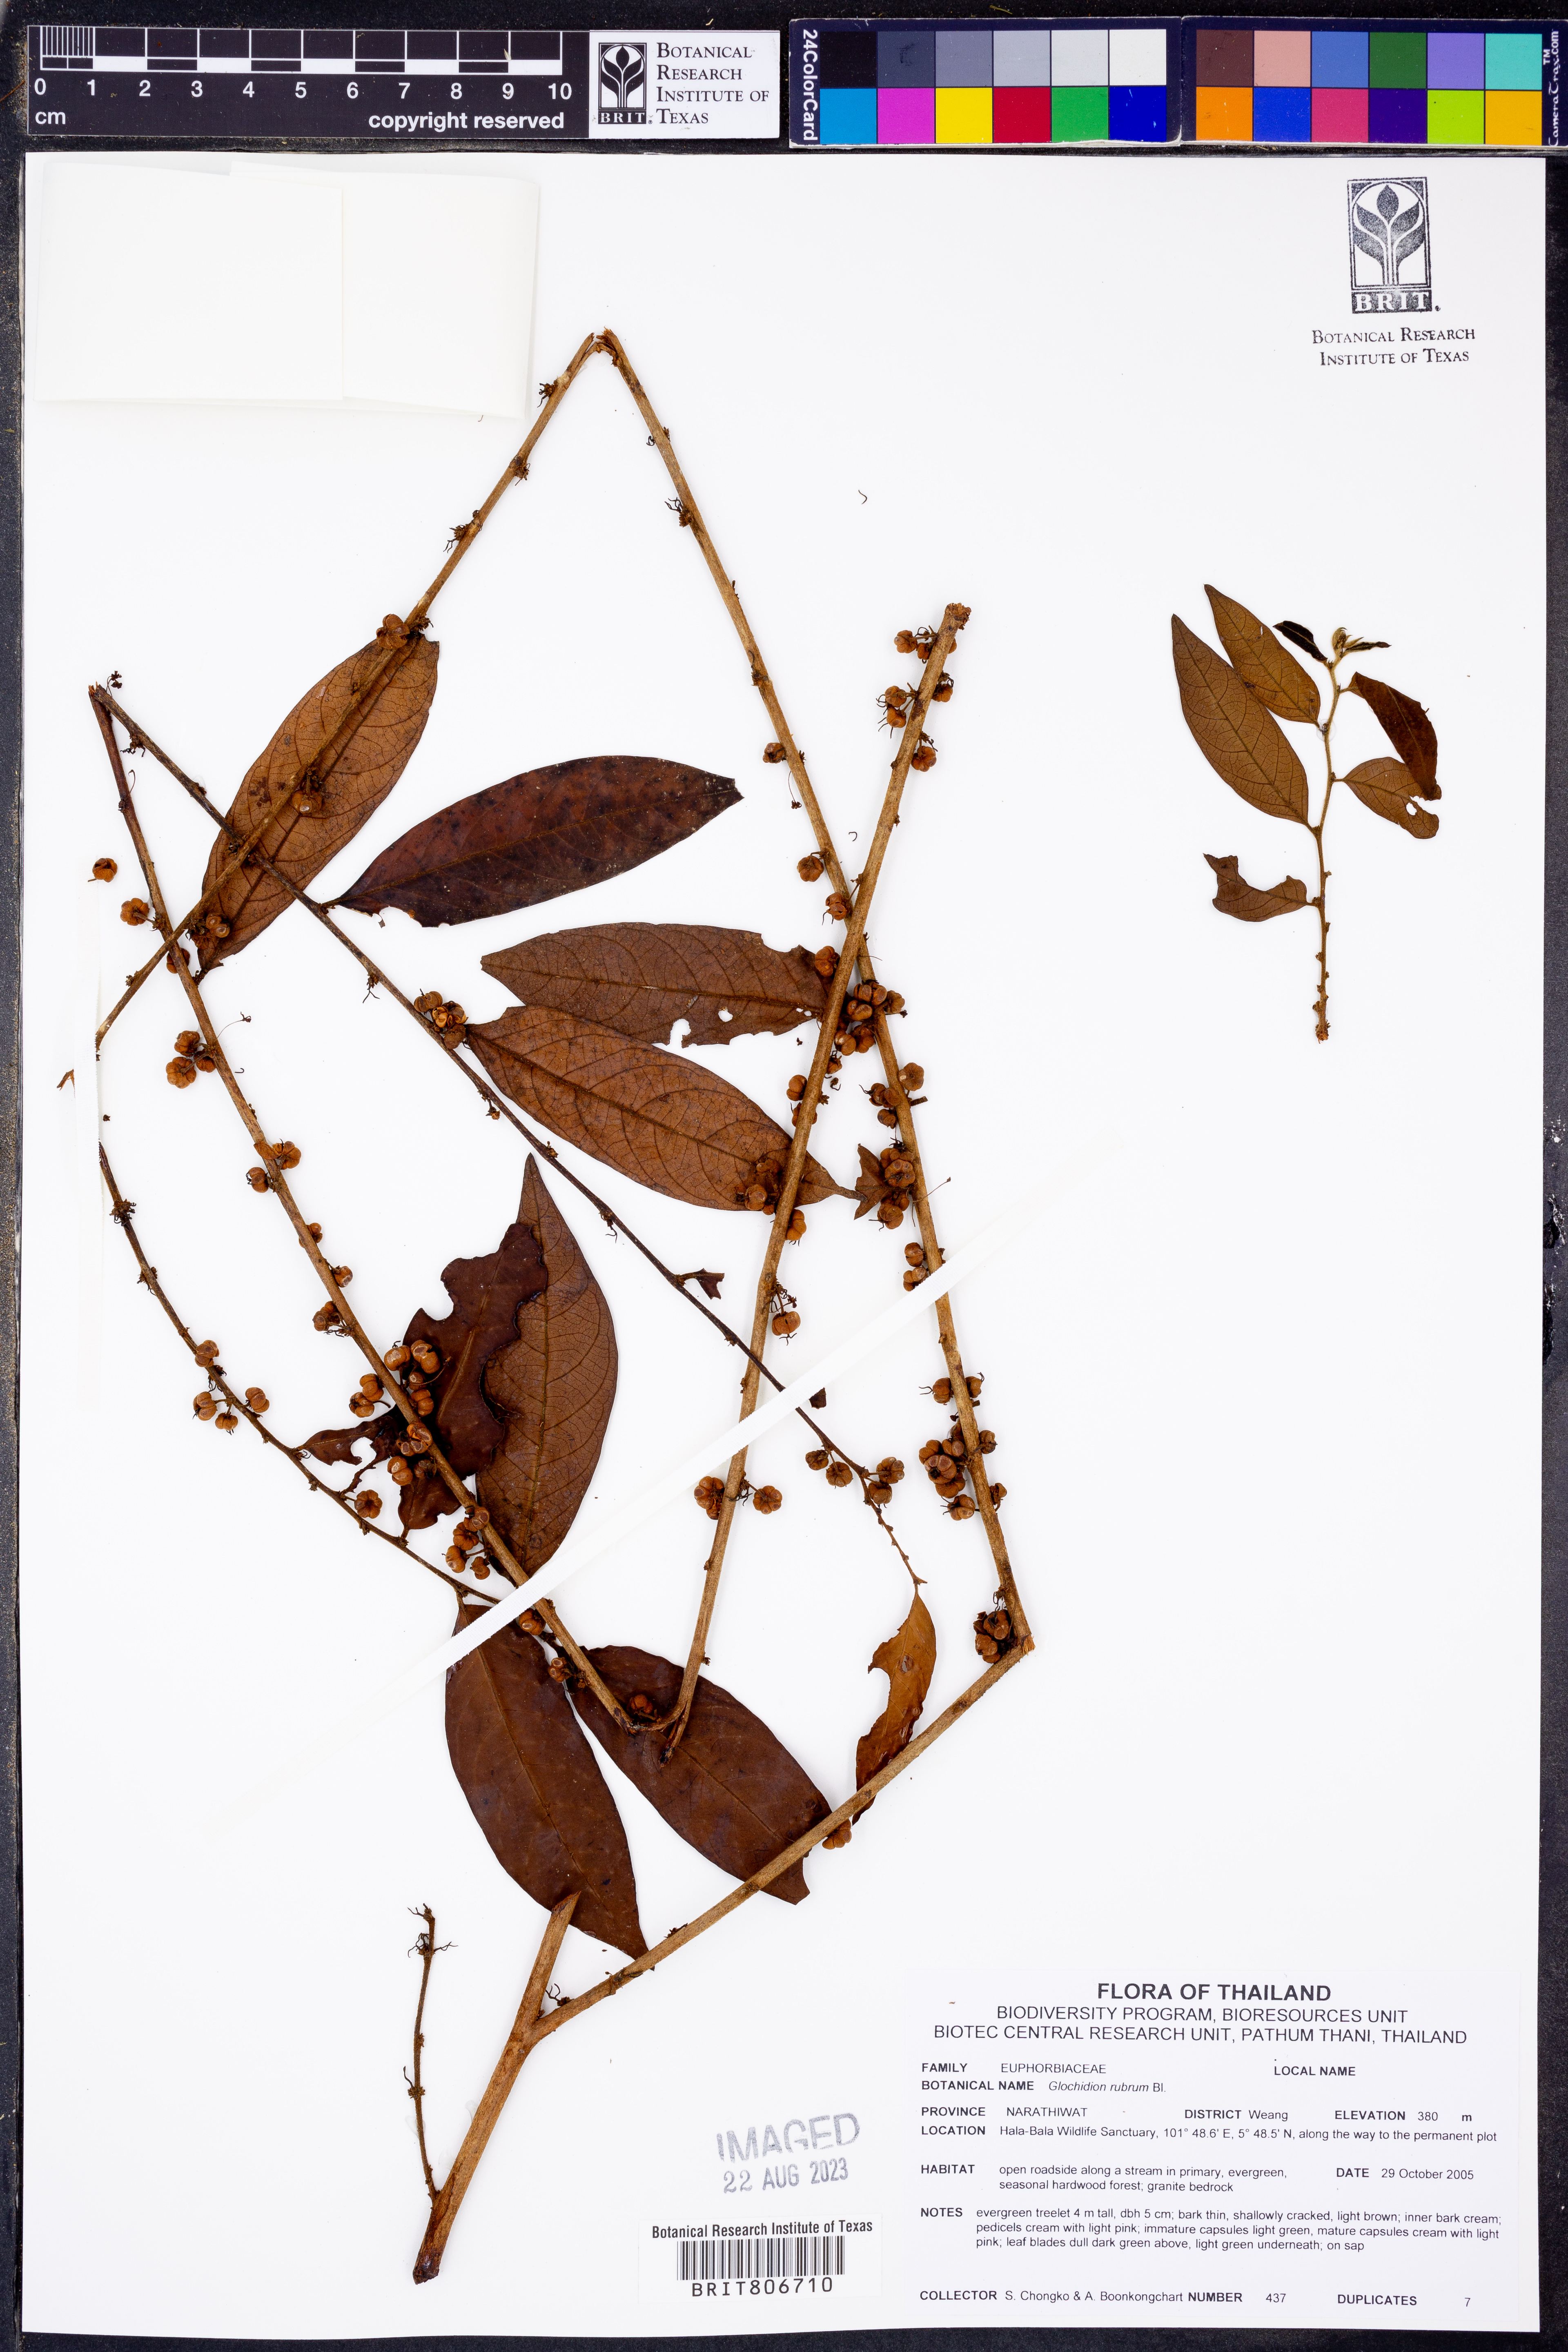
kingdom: Plantae
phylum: Tracheophyta
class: Magnoliopsida
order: Malpighiales
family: Phyllanthaceae
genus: Glochidion
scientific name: Glochidion rubrum
